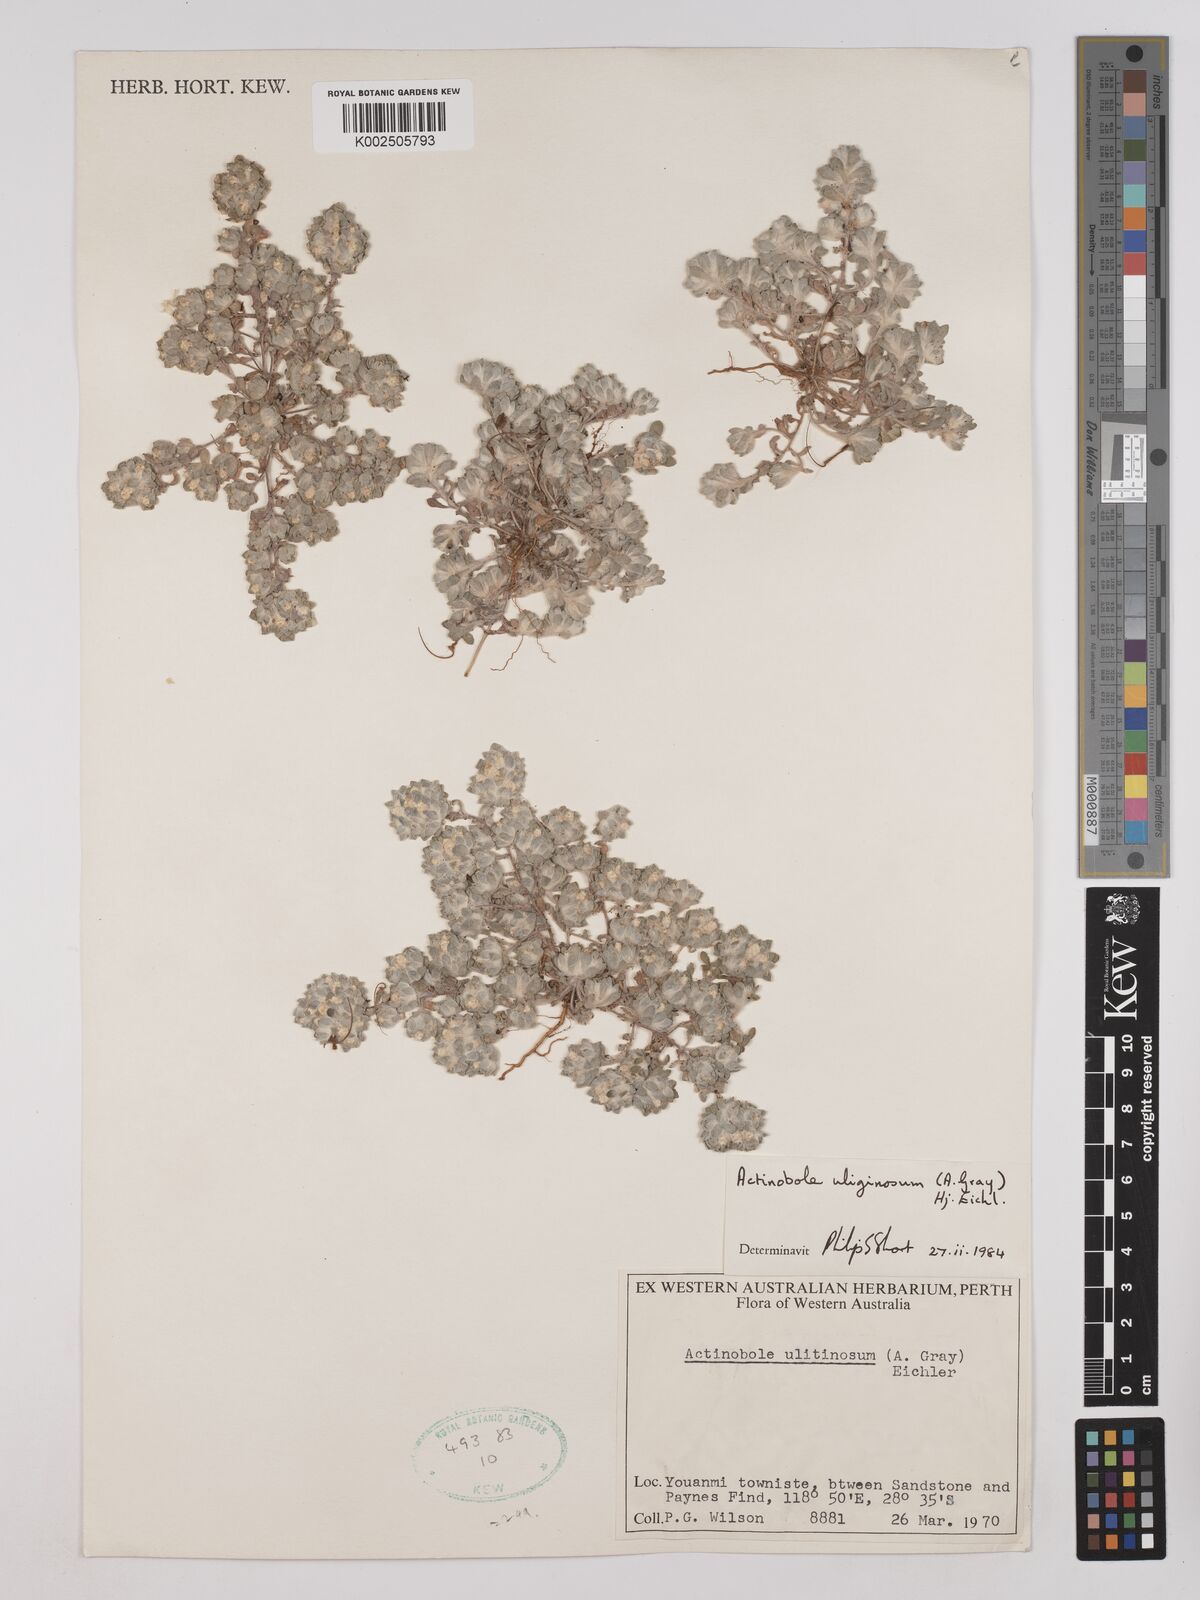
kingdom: Plantae
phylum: Tracheophyta
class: Magnoliopsida
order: Asterales
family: Asteraceae
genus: Actinobole
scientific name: Actinobole uliginosum
